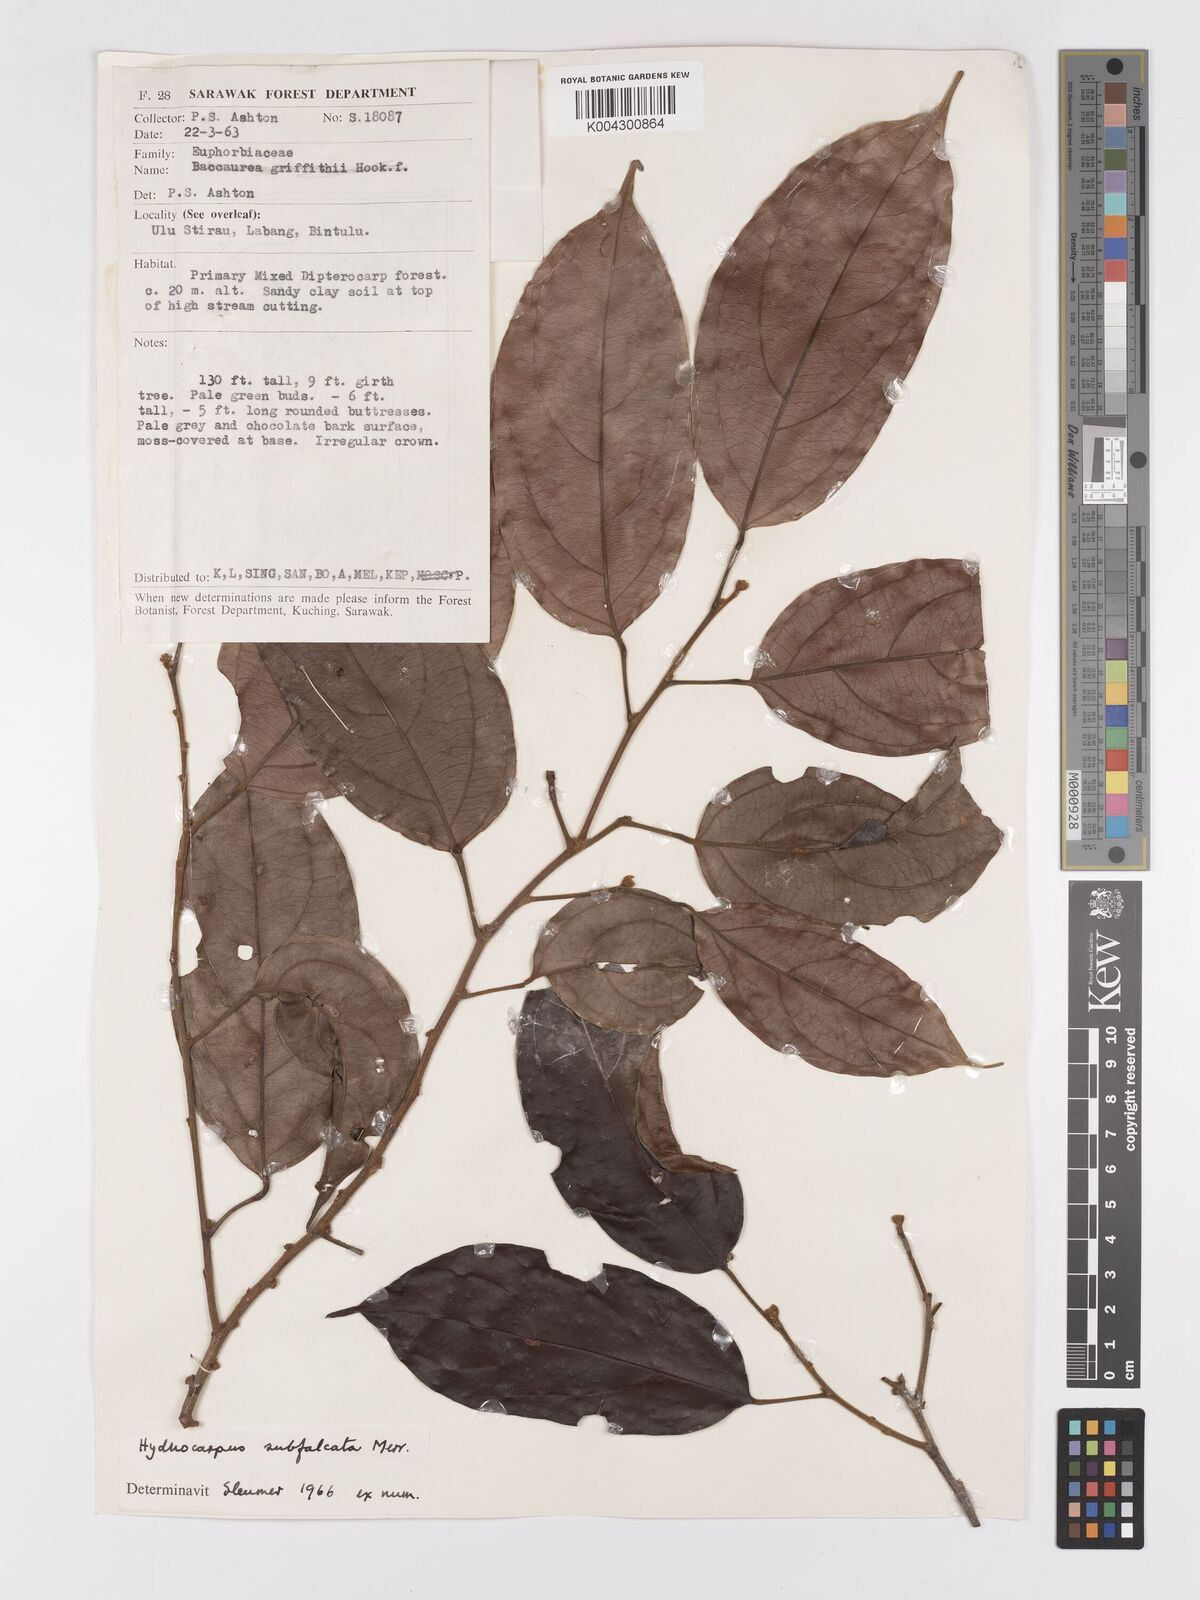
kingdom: Plantae
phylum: Tracheophyta
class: Magnoliopsida
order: Malpighiales
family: Achariaceae
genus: Hydnocarpus
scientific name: Hydnocarpus subfalcatus
